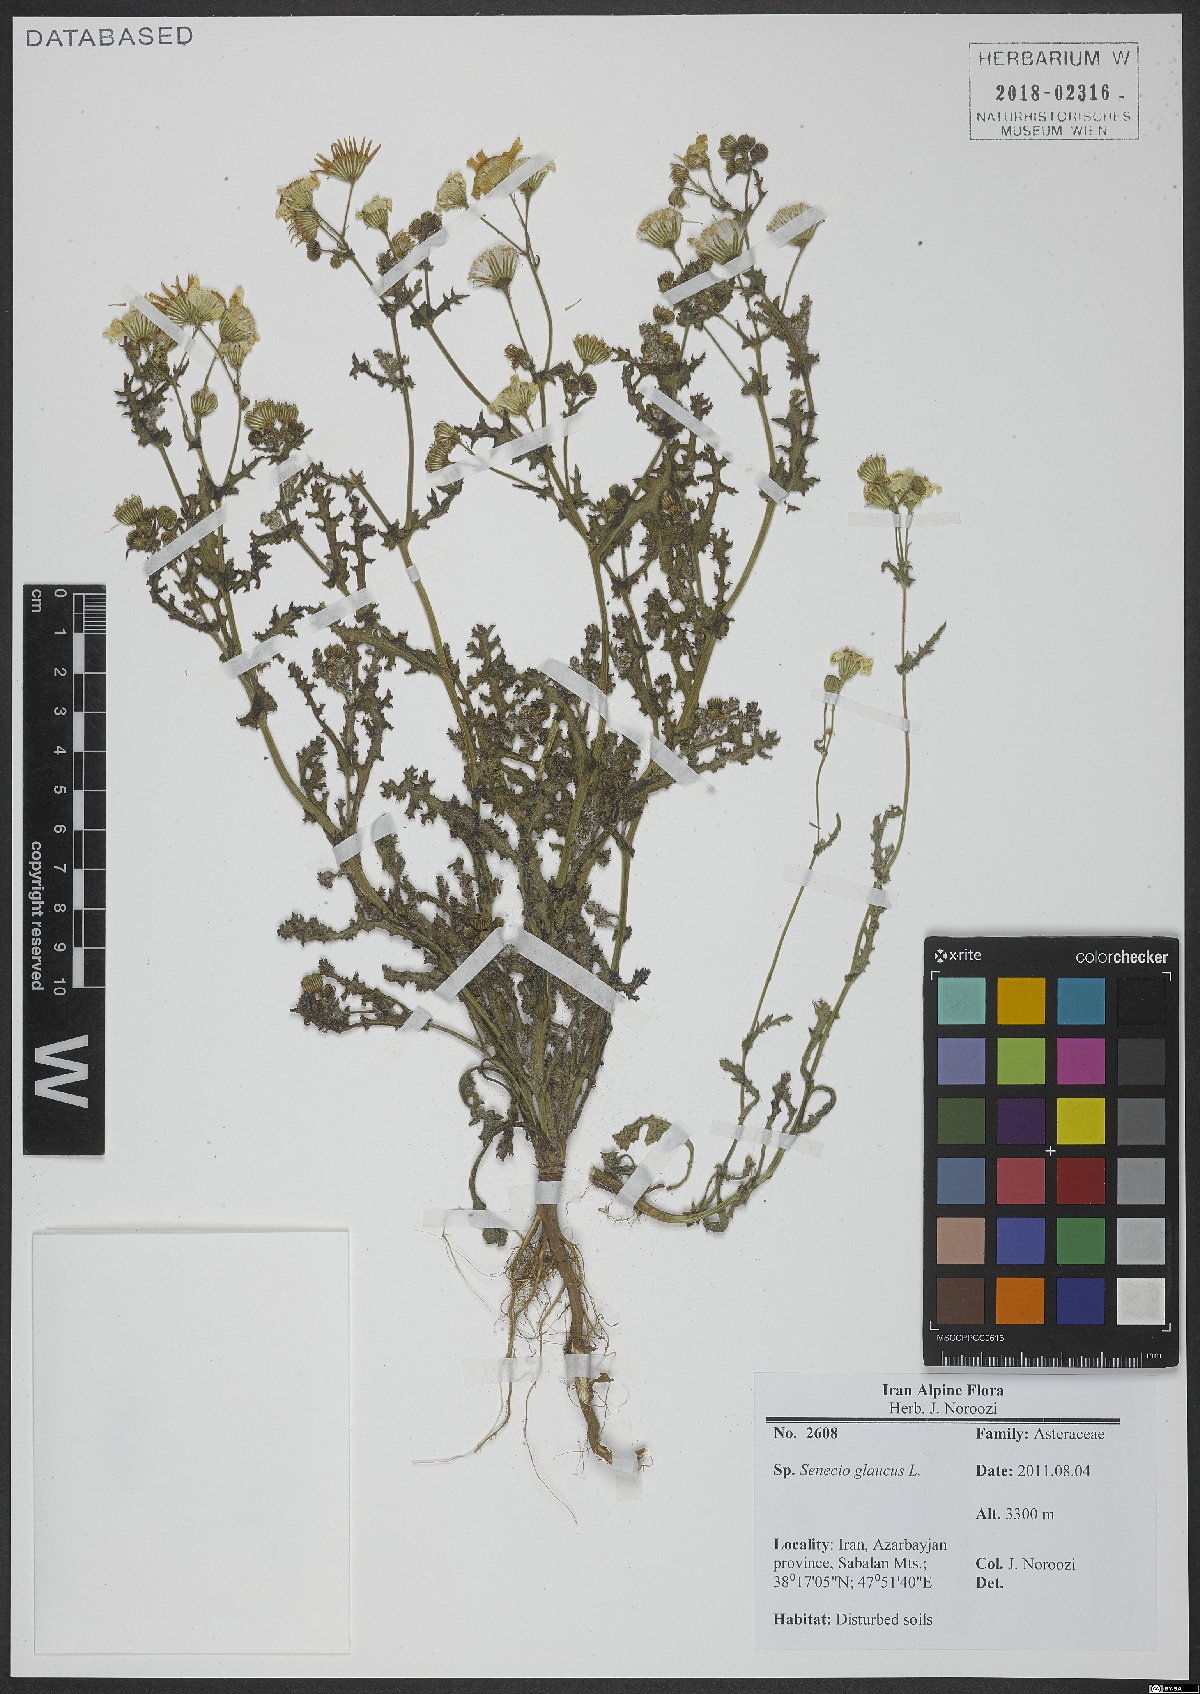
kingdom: Plantae
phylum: Tracheophyta
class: Magnoliopsida
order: Asterales
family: Asteraceae
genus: Senecio
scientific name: Senecio glaucus
